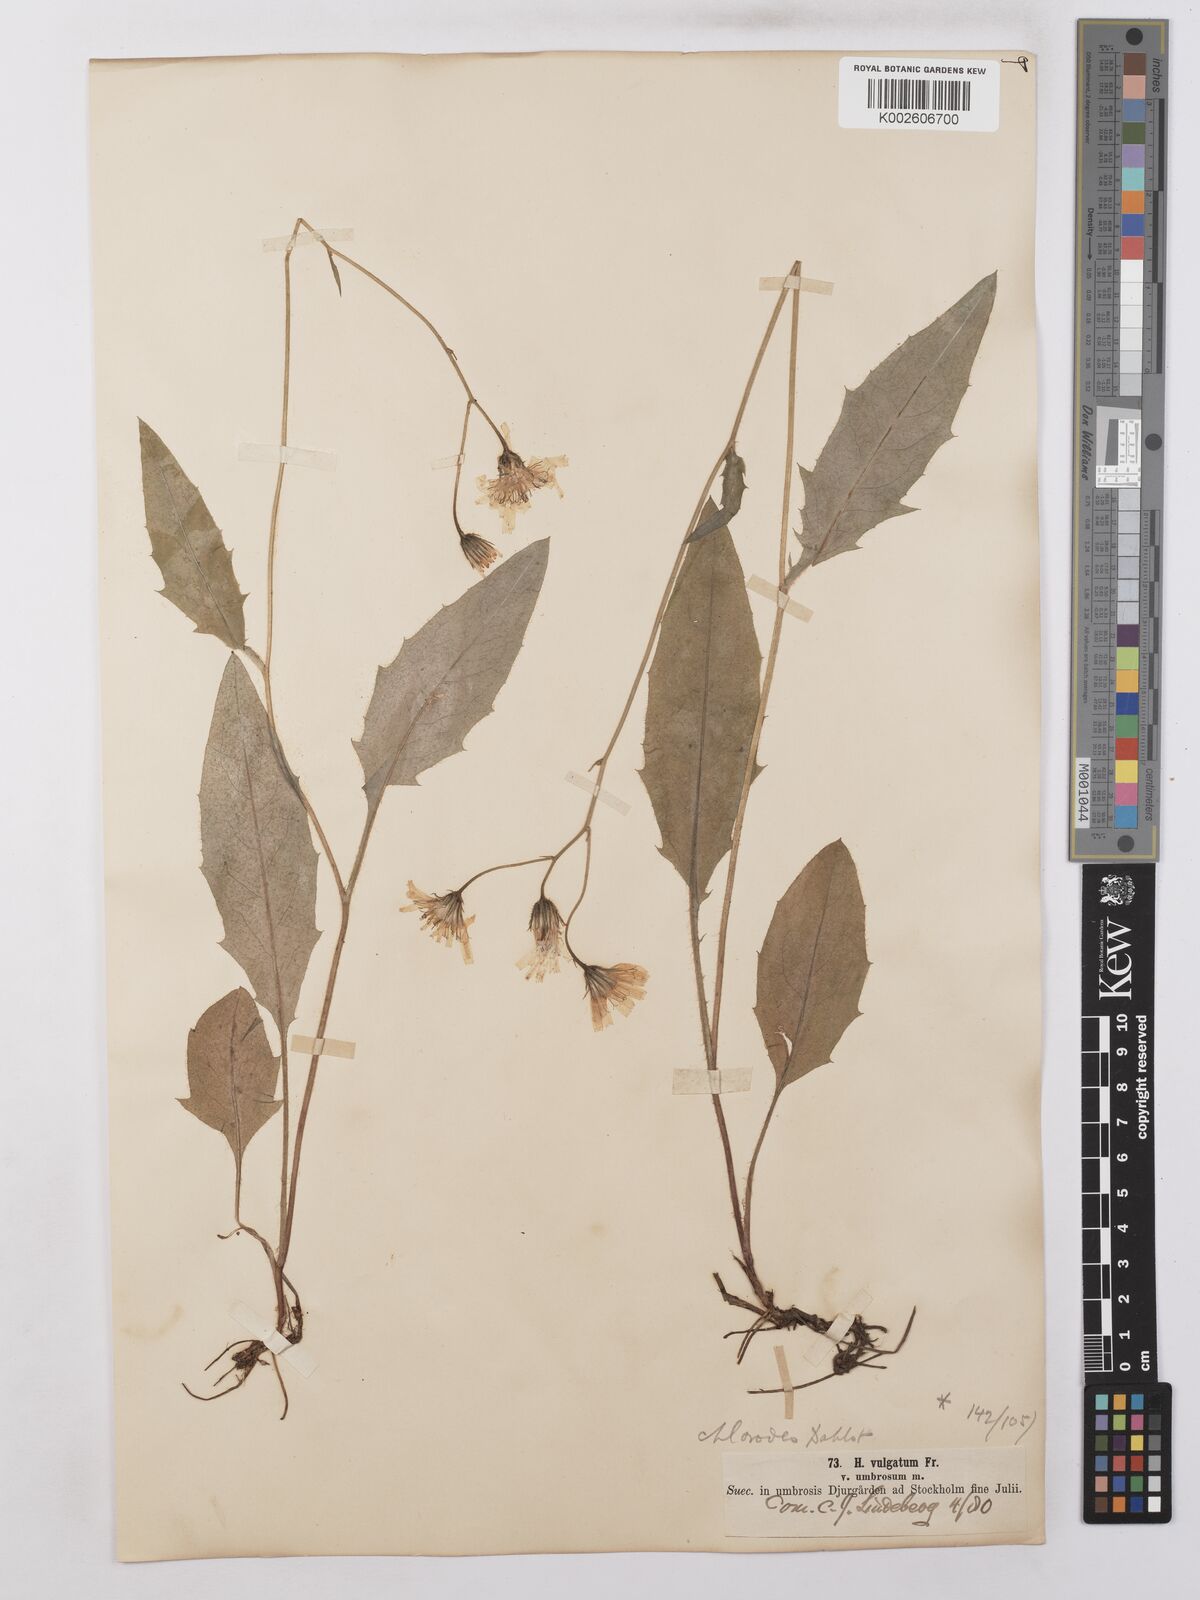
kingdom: Plantae
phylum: Tracheophyta
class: Magnoliopsida
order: Asterales
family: Asteraceae
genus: Hieracium
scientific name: Hieracium lachenalii
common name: Common hawkweed
